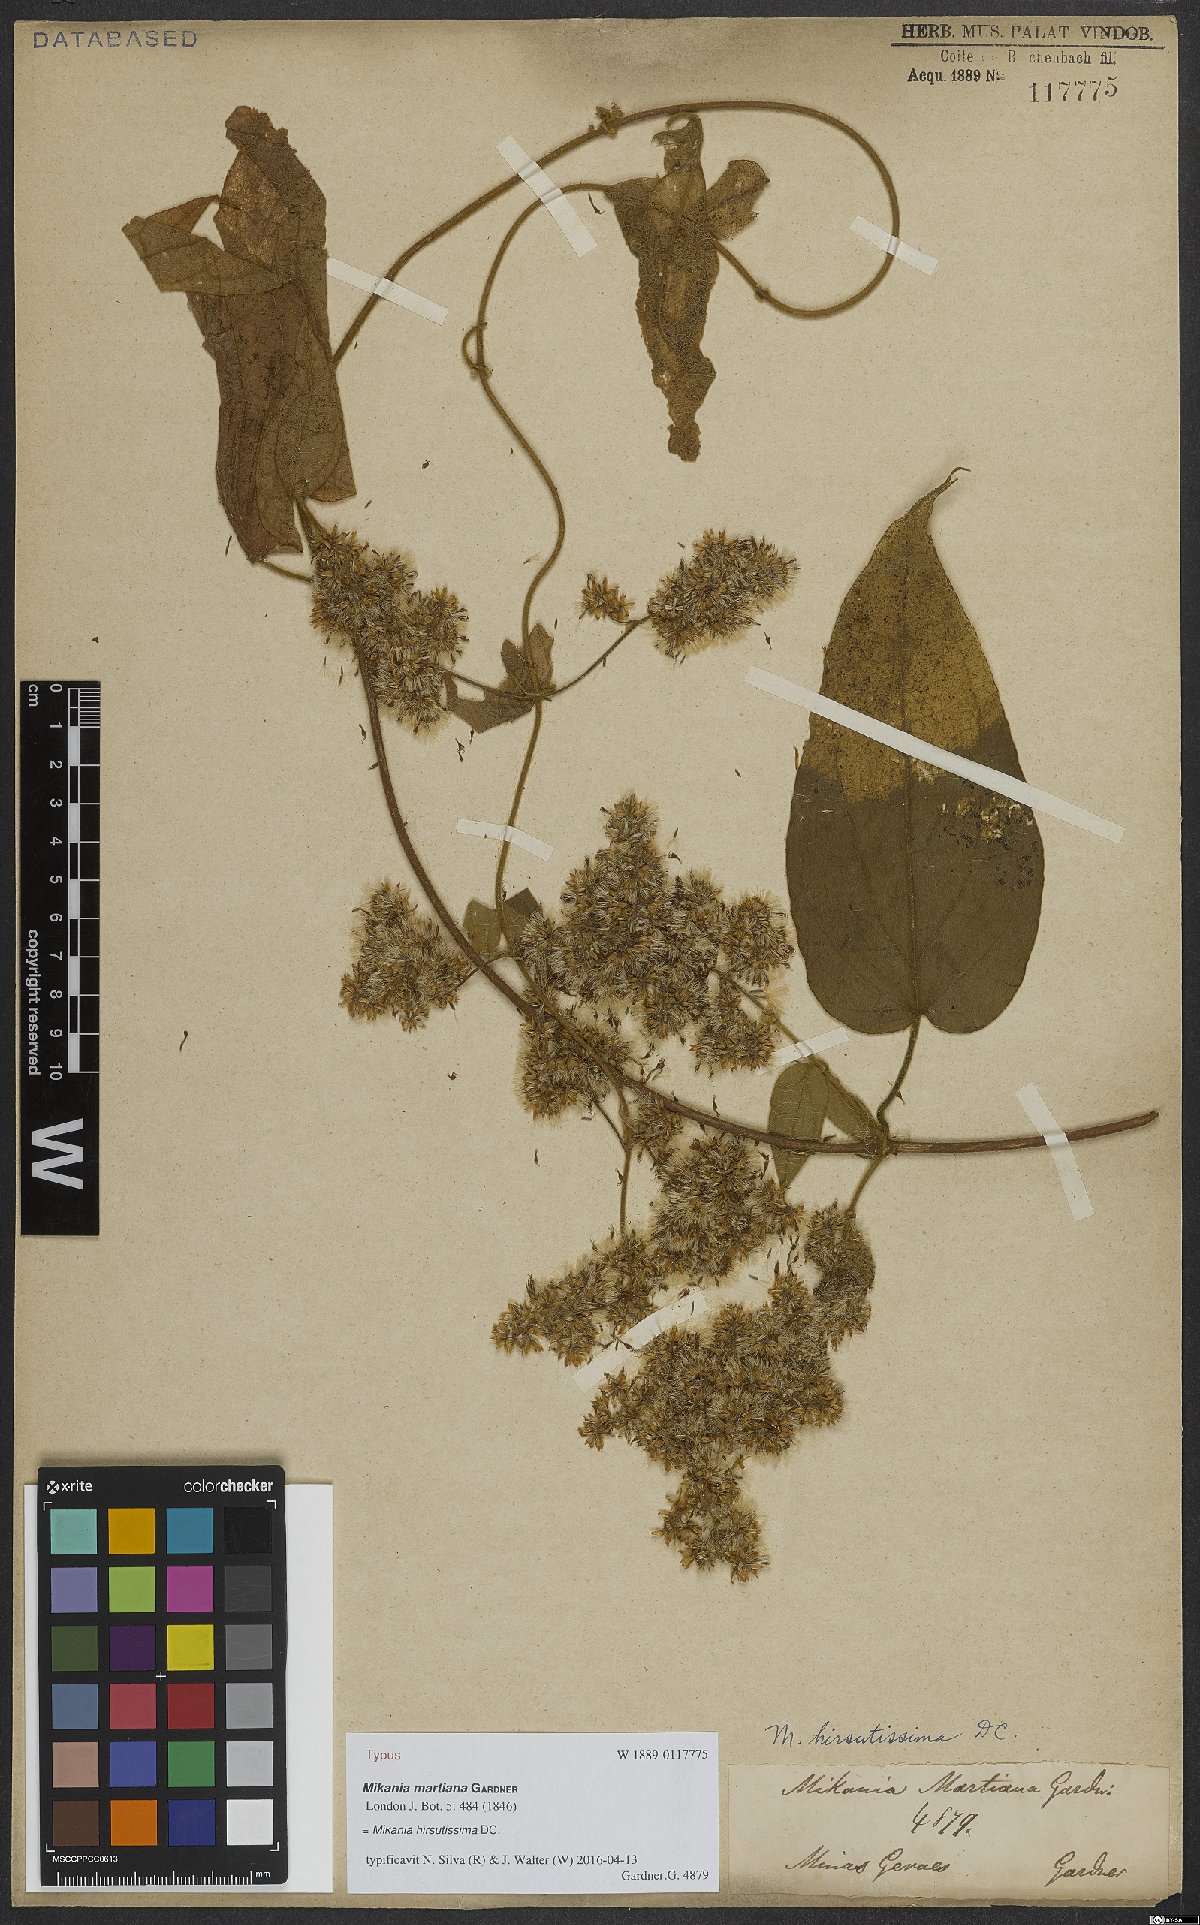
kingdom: Plantae
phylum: Tracheophyta
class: Magnoliopsida
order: Asterales
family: Asteraceae
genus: Mikania
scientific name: Mikania banisteriae
